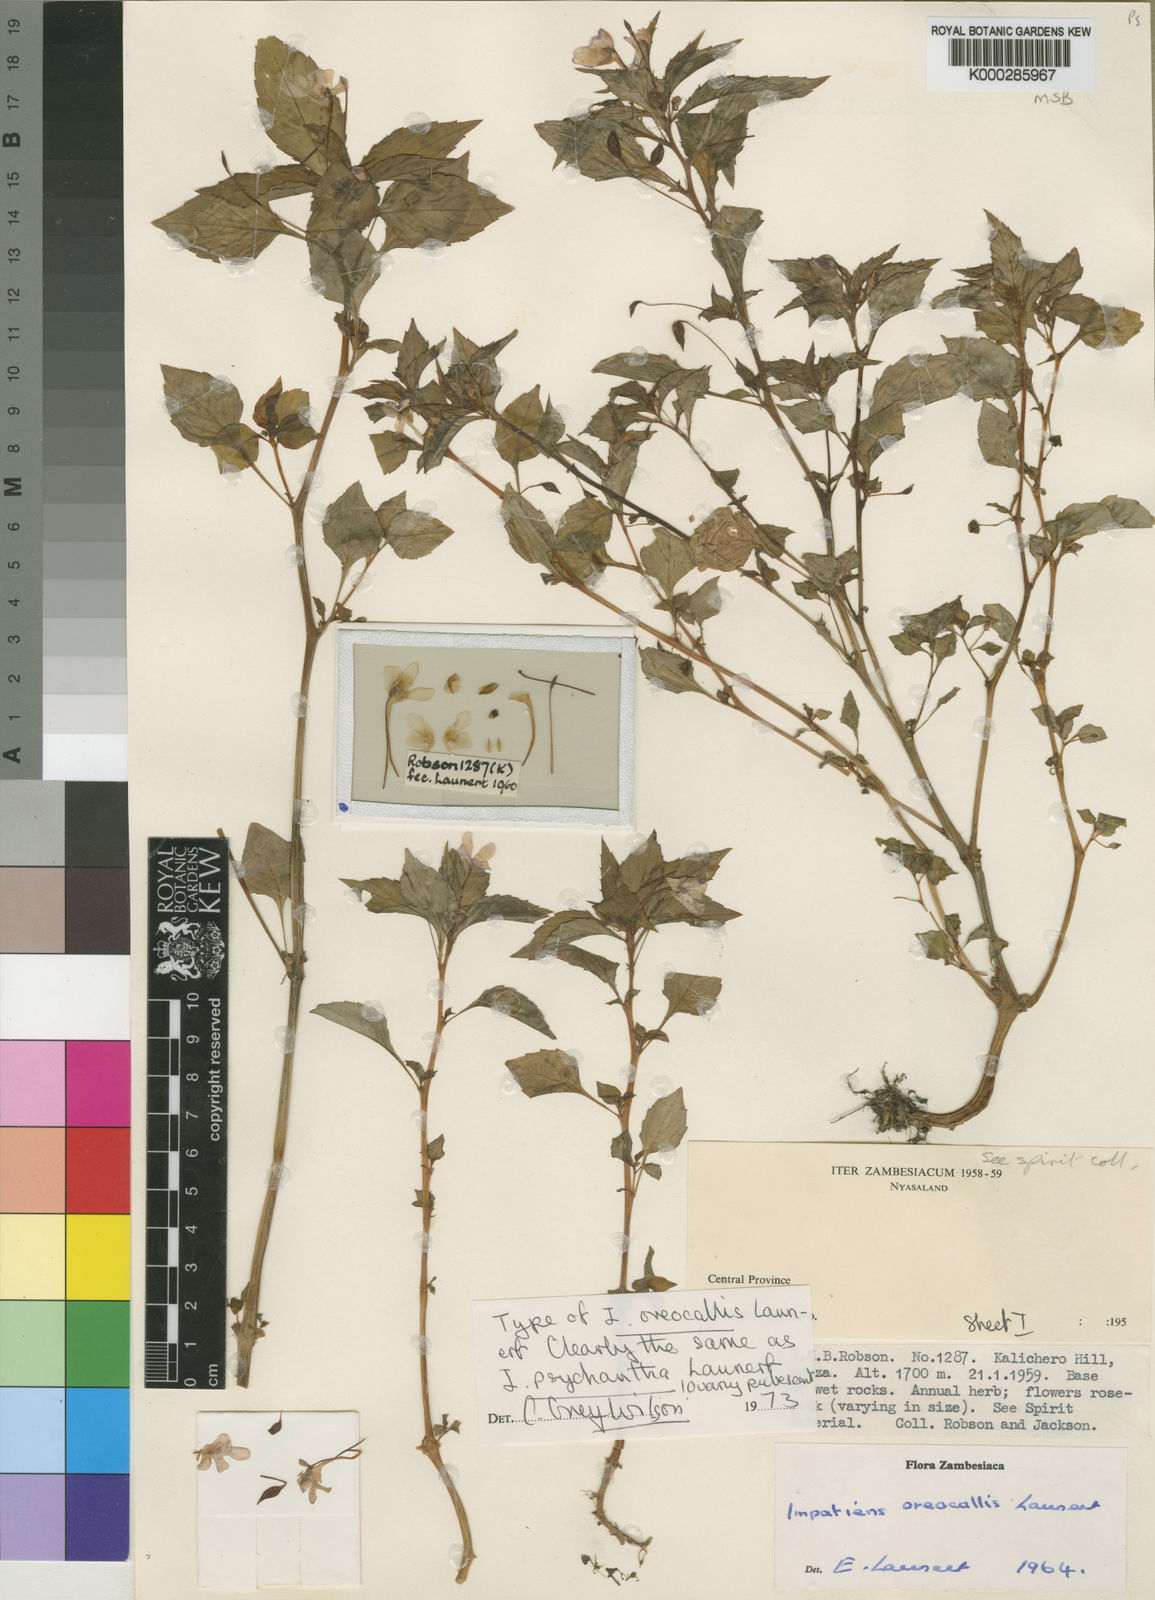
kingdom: Plantae
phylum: Tracheophyta
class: Magnoliopsida
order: Ericales
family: Balsaminaceae
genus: Impatiens
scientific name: Impatiens oreocallis
